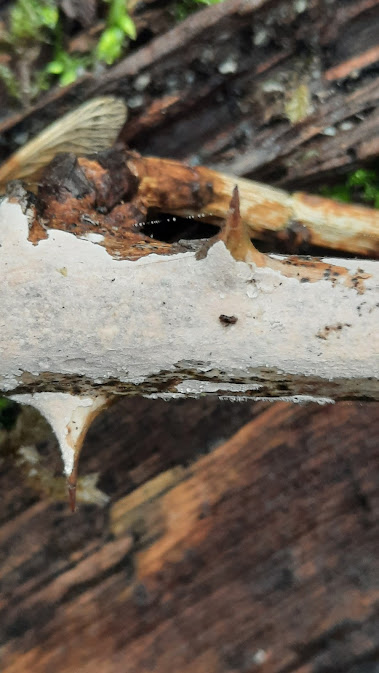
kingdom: Fungi
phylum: Basidiomycota
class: Agaricomycetes
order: Corticiales
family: Corticiaceae
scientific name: Corticiaceae
